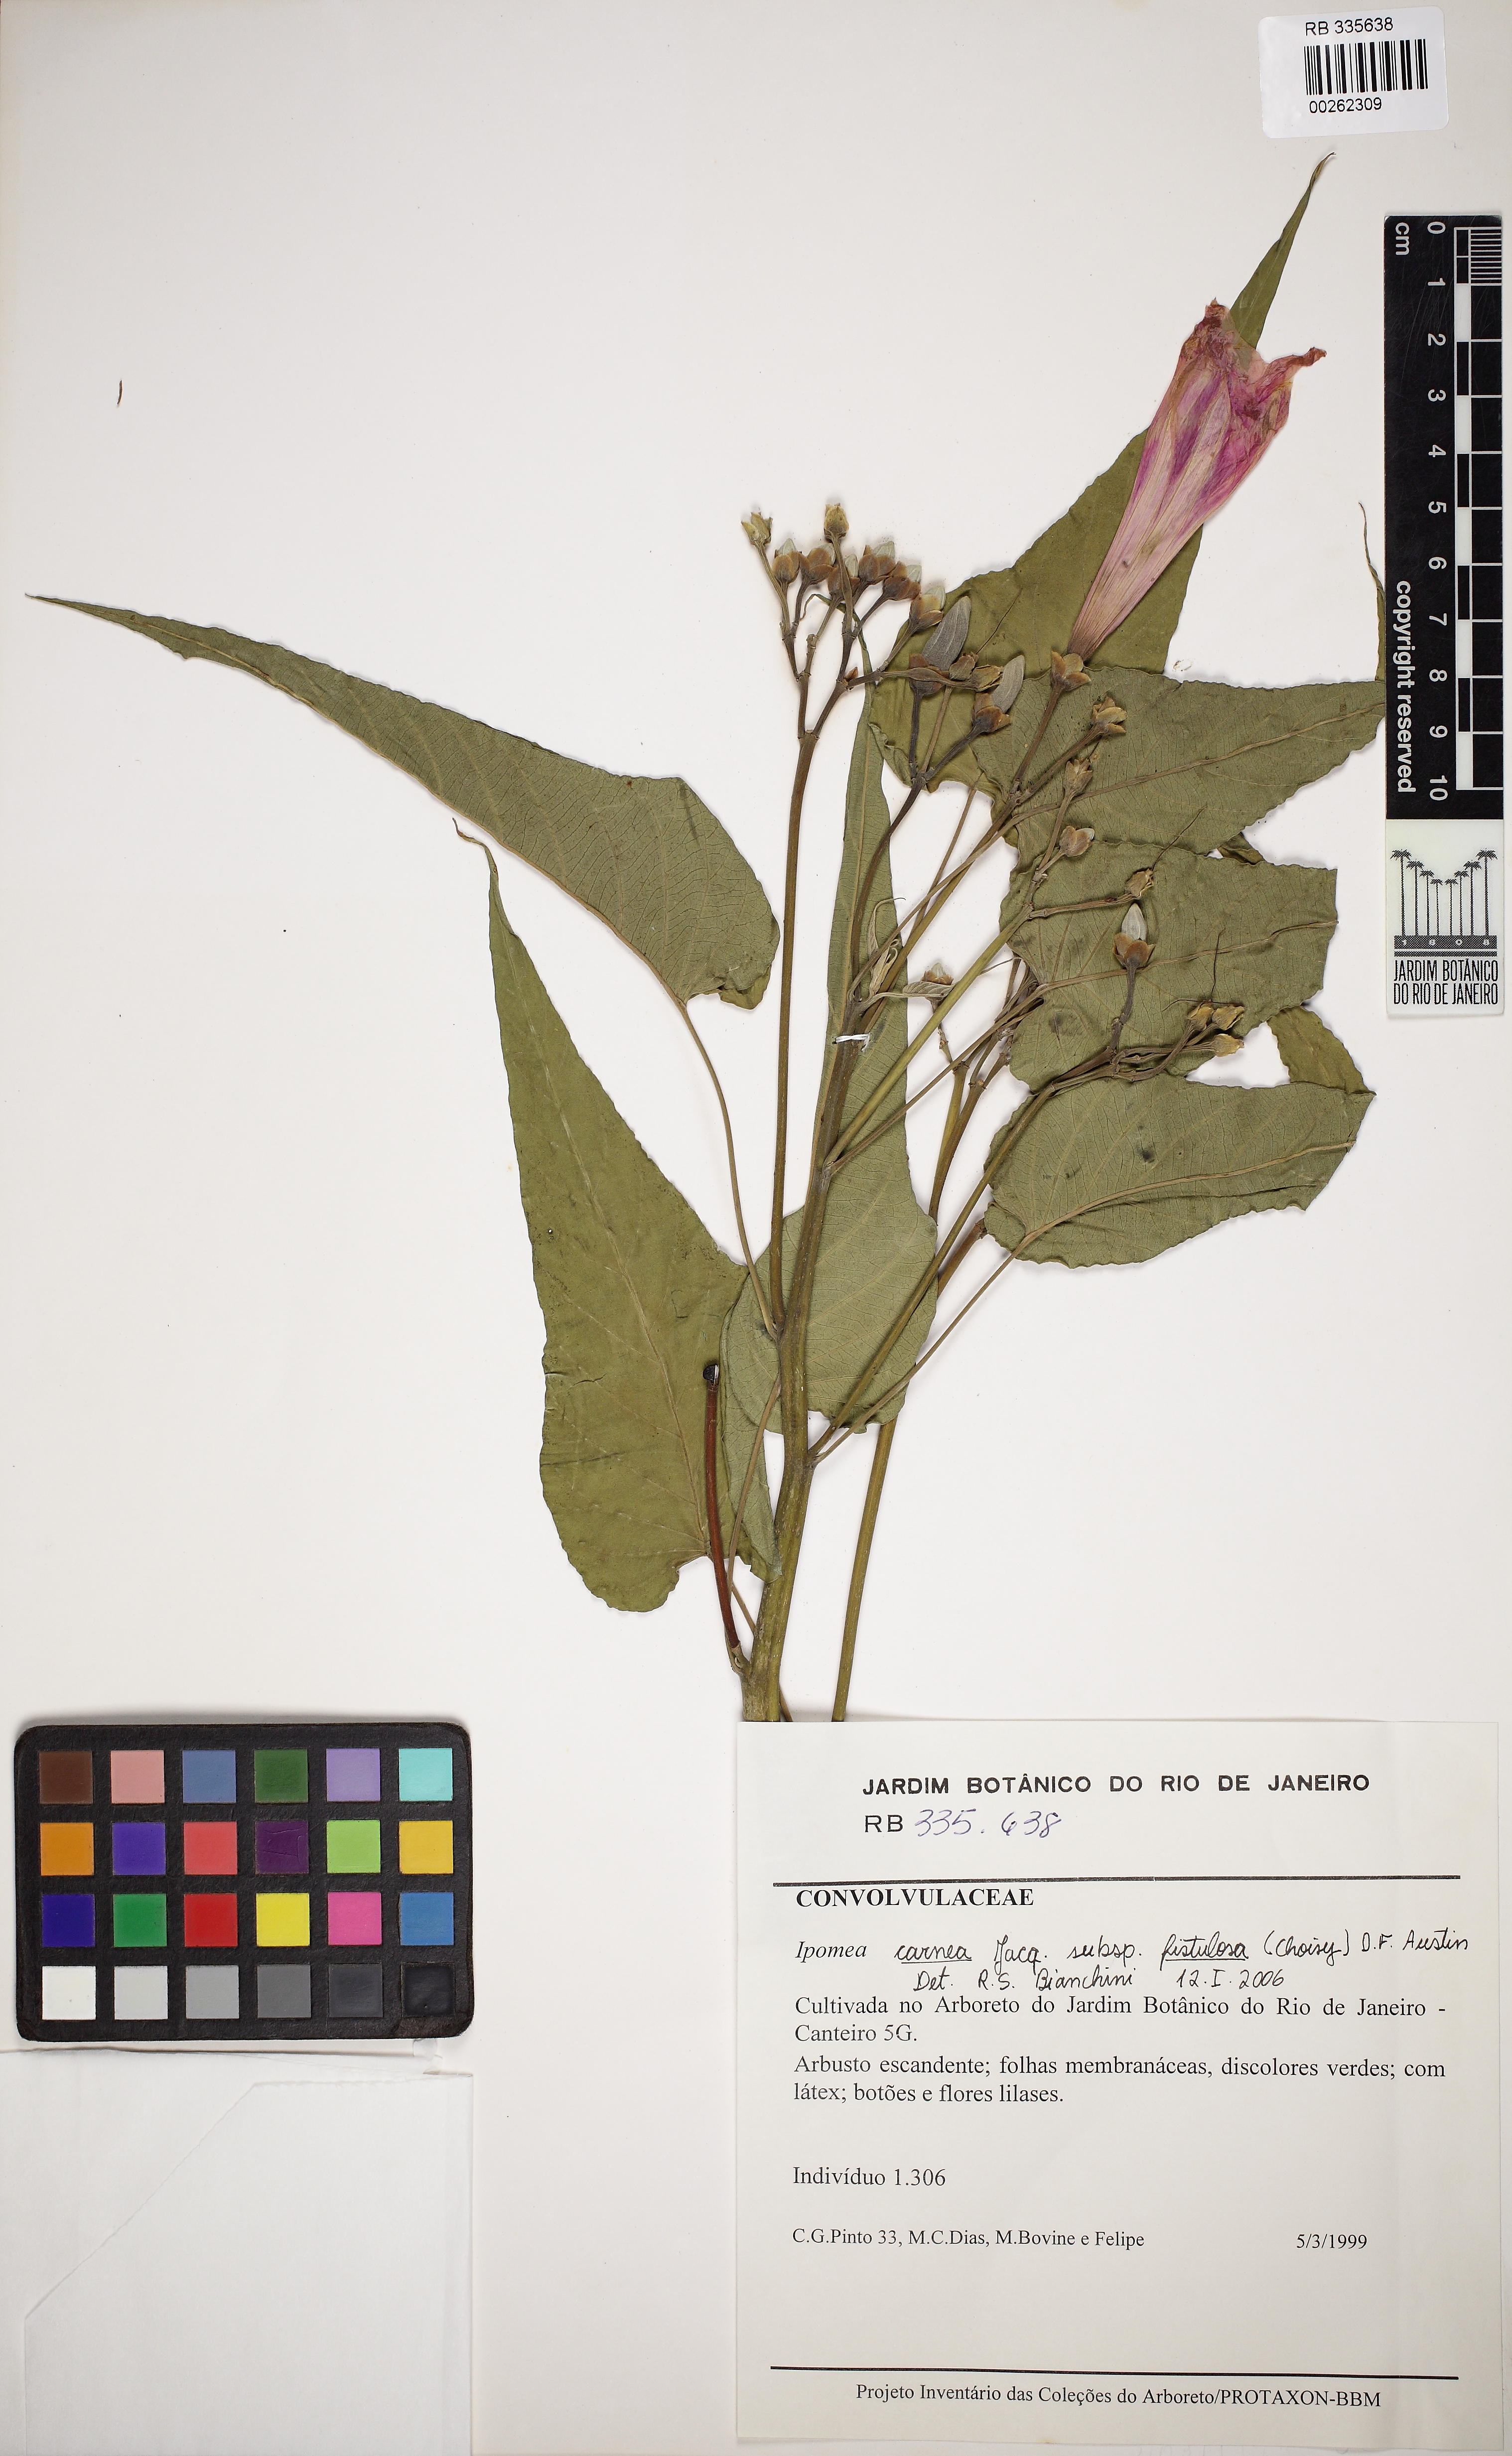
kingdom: Plantae
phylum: Tracheophyta
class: Magnoliopsida
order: Solanales
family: Convolvulaceae
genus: Ipomoea
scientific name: Ipomoea carnea
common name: Morning-glory
